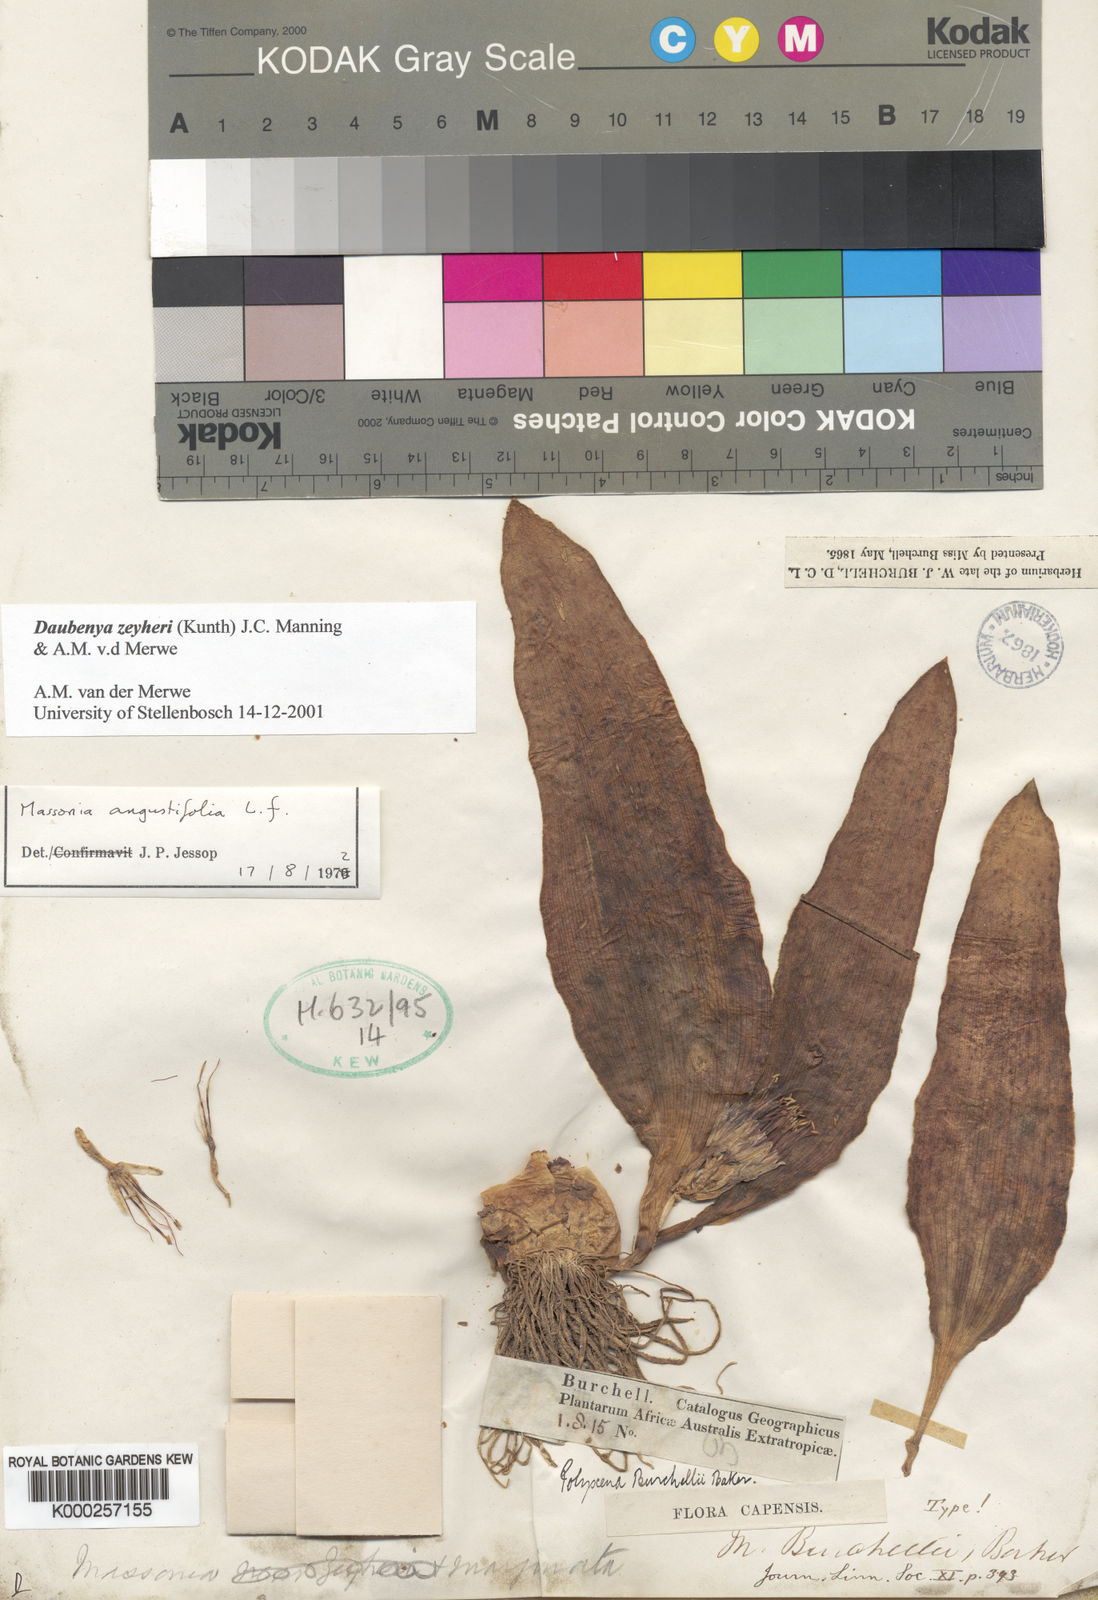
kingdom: Plantae
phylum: Tracheophyta
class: Liliopsida
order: Asparagales
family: Asparagaceae
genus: Daubenya
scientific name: Daubenya zeyheri
